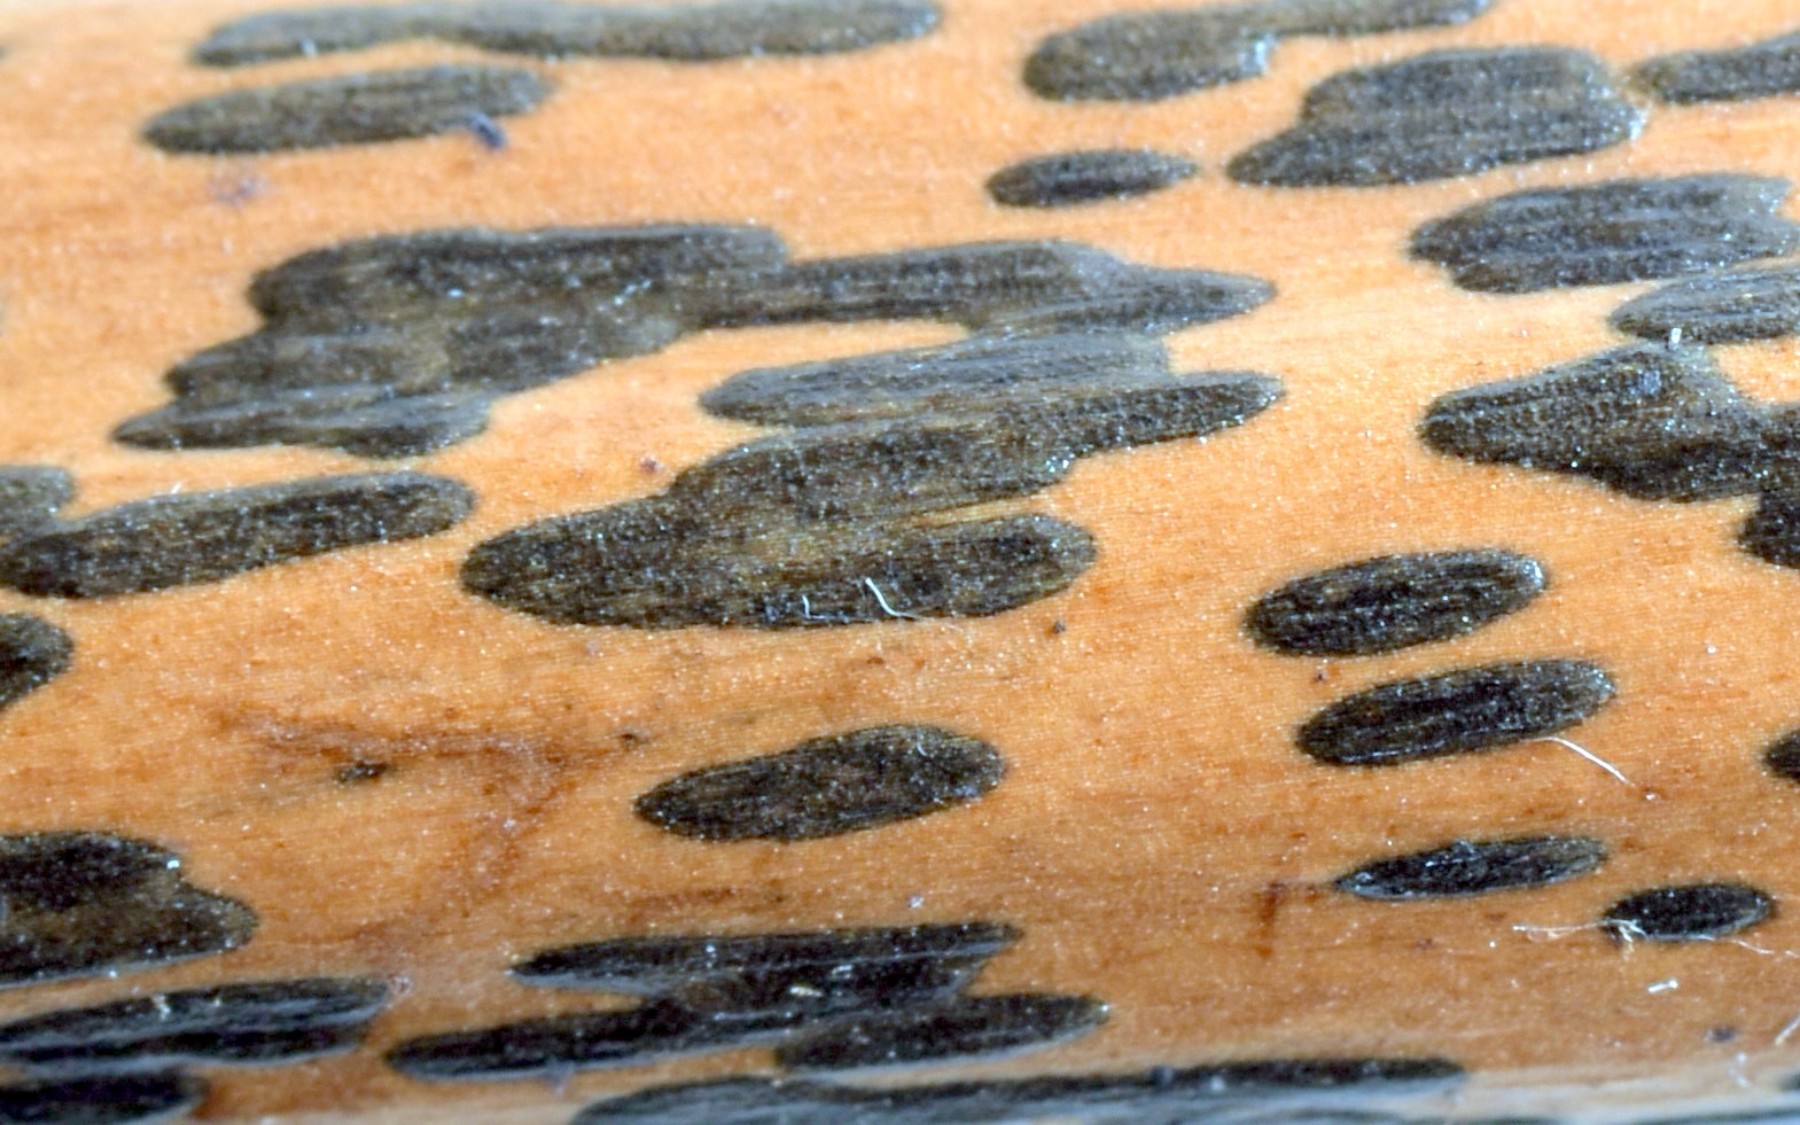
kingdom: Fungi
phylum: Ascomycota
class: Dothideomycetes
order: Pleosporales
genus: Rhopographus
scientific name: Rhopographus filicinus
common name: Bracken map
